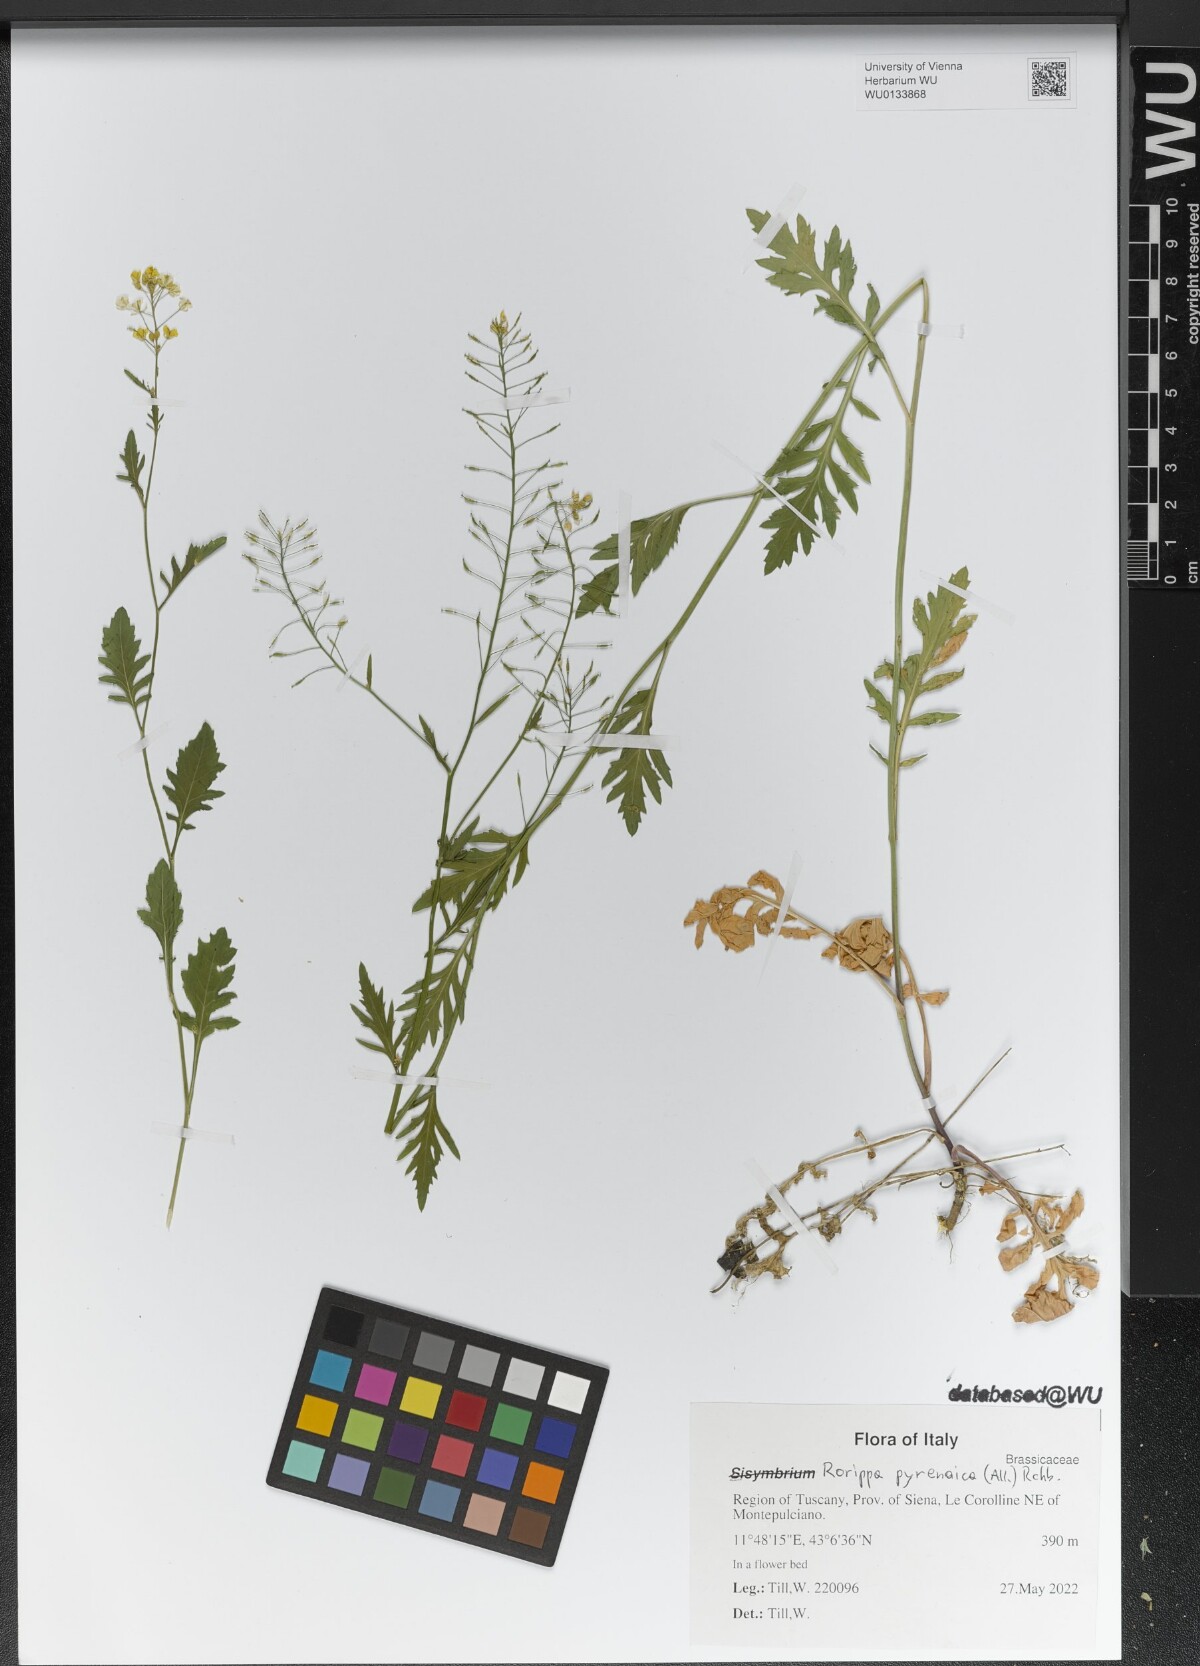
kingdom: Plantae
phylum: Tracheophyta
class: Magnoliopsida
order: Brassicales
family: Brassicaceae
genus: Rorippa
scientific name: Rorippa pyrenaica
